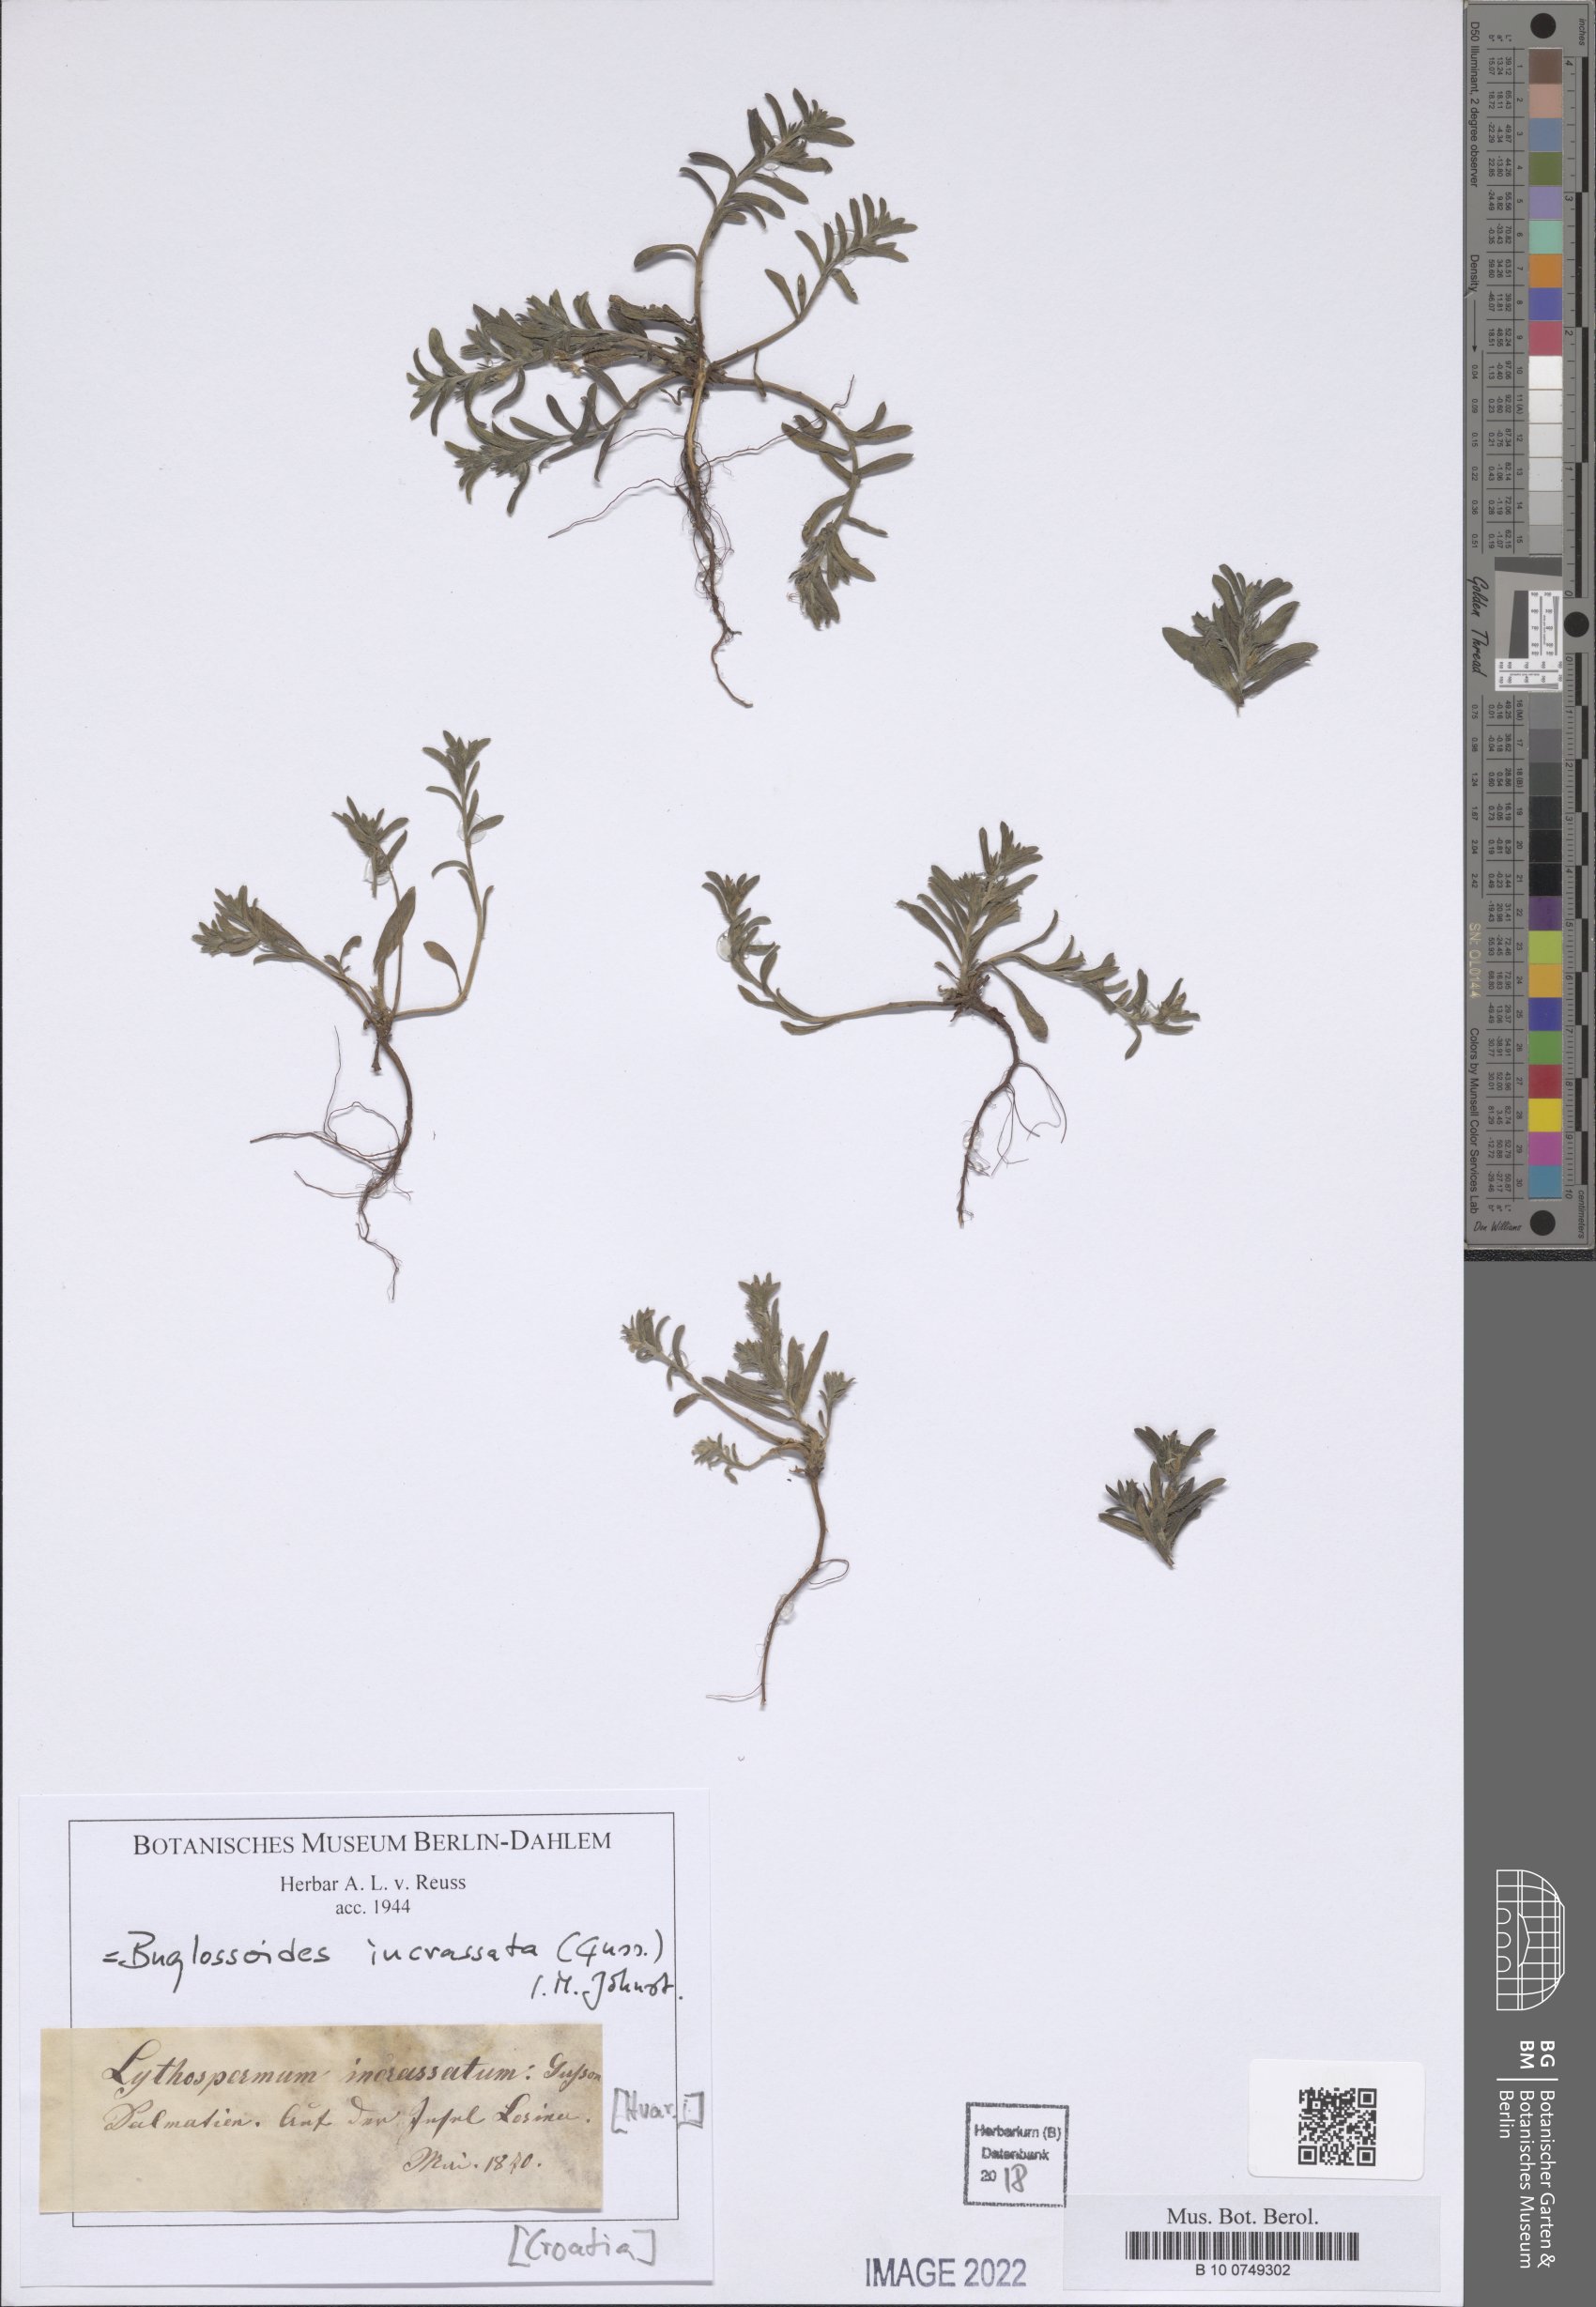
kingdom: Plantae
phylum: Tracheophyta
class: Magnoliopsida
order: Boraginales
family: Boraginaceae
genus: Buglossoides
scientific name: Buglossoides incrassata
